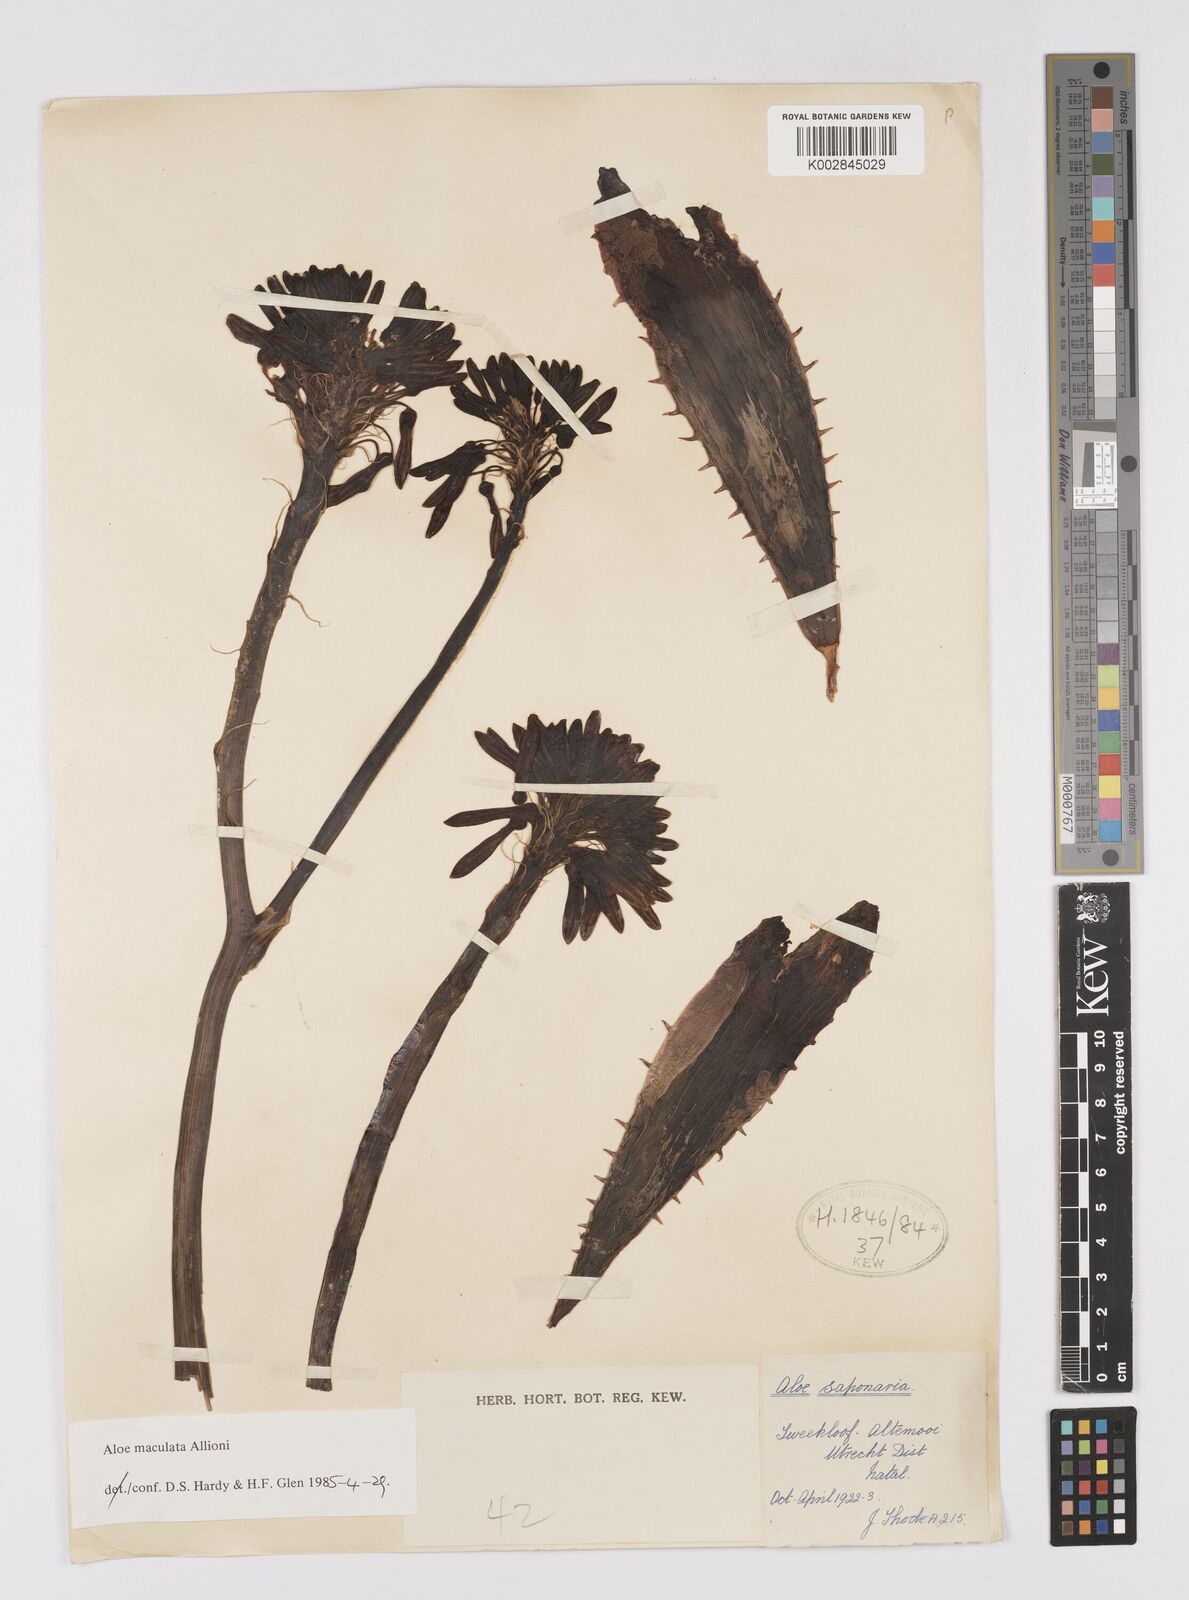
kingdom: Plantae
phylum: Tracheophyta
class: Liliopsida
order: Asparagales
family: Asphodelaceae
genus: Aloe
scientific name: Aloe maculata
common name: Broadleaf aloe
